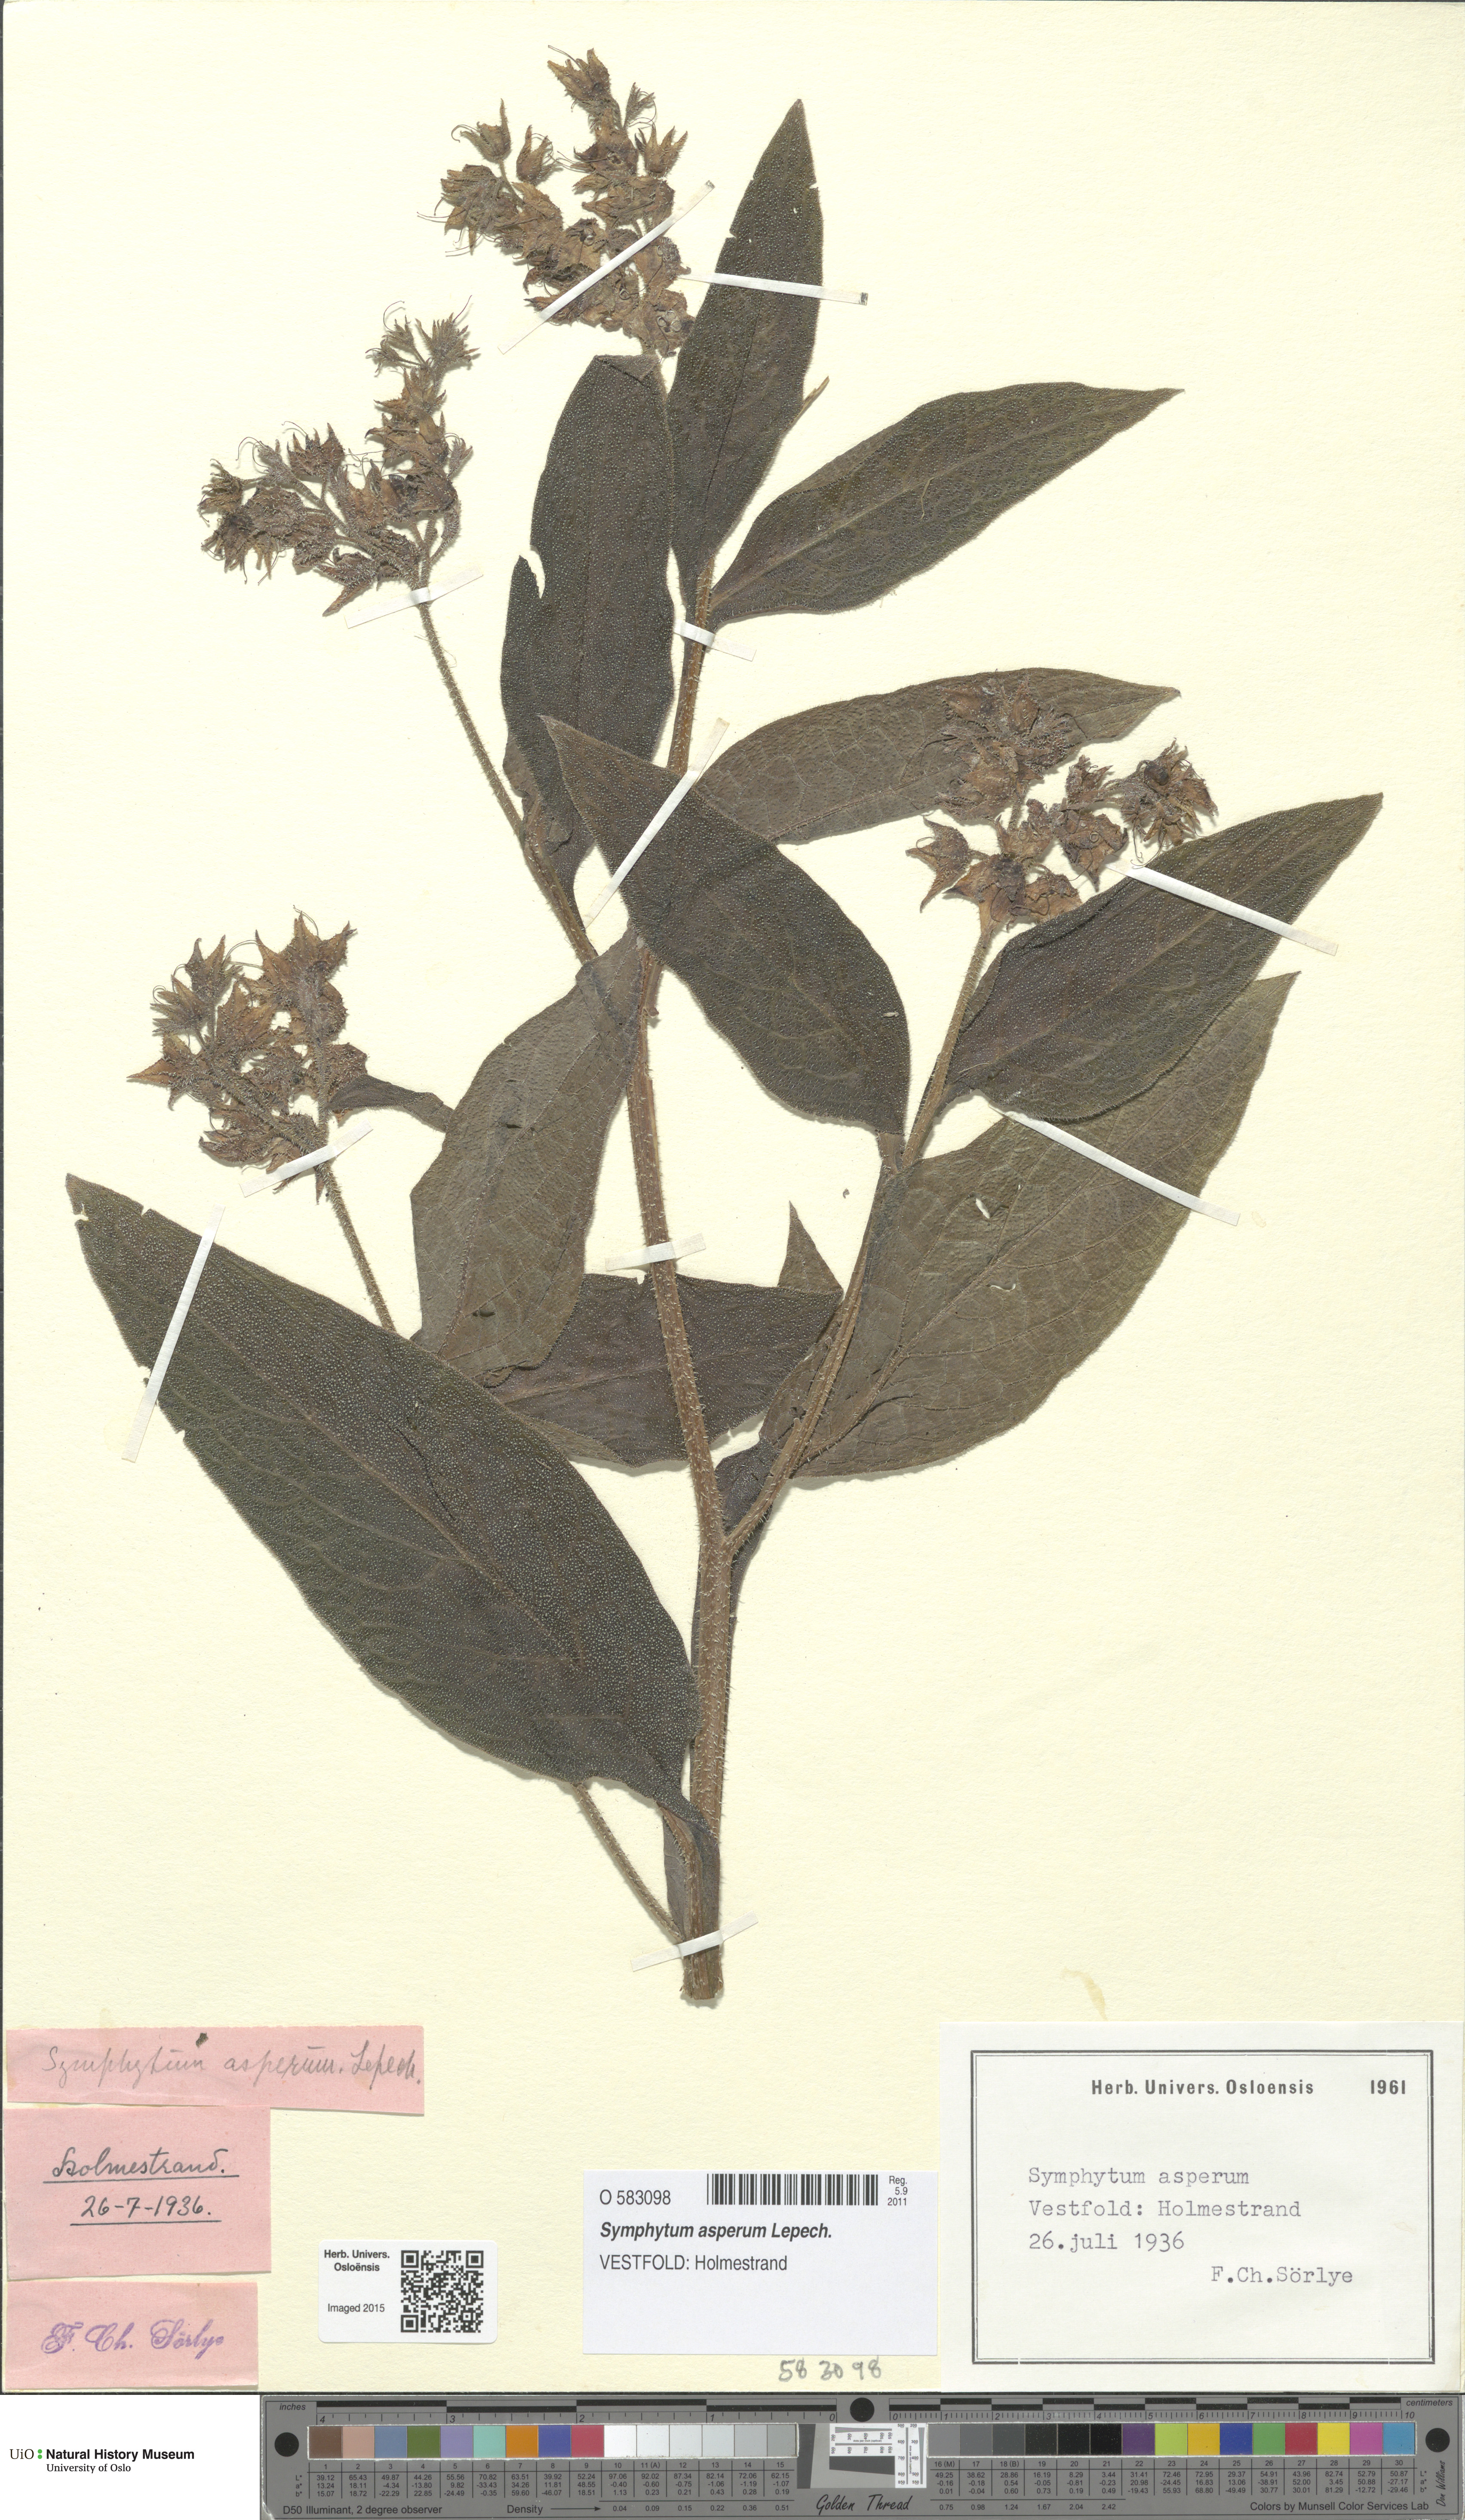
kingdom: Plantae
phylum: Tracheophyta
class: Magnoliopsida
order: Boraginales
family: Boraginaceae
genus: Symphytum
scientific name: Symphytum uplandicum
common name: Russian comfrey
